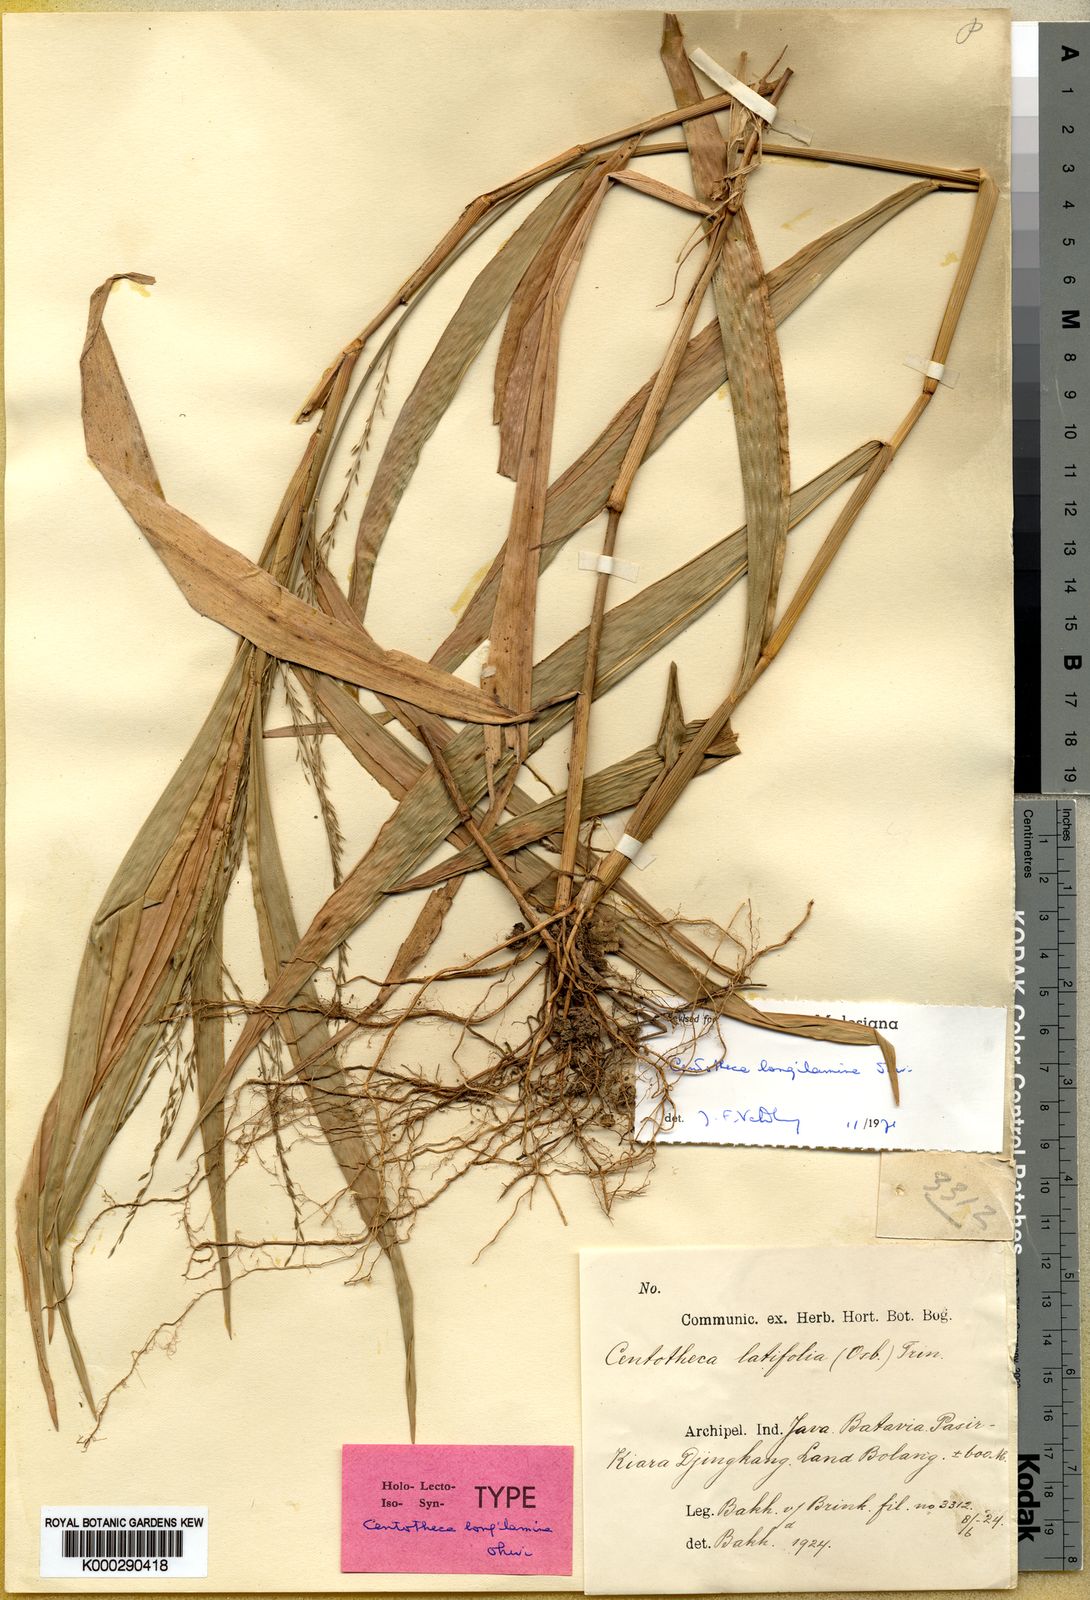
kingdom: Plantae
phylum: Tracheophyta
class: Liliopsida
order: Poales
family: Poaceae
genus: Centotheca
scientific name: Centotheca lappacea
